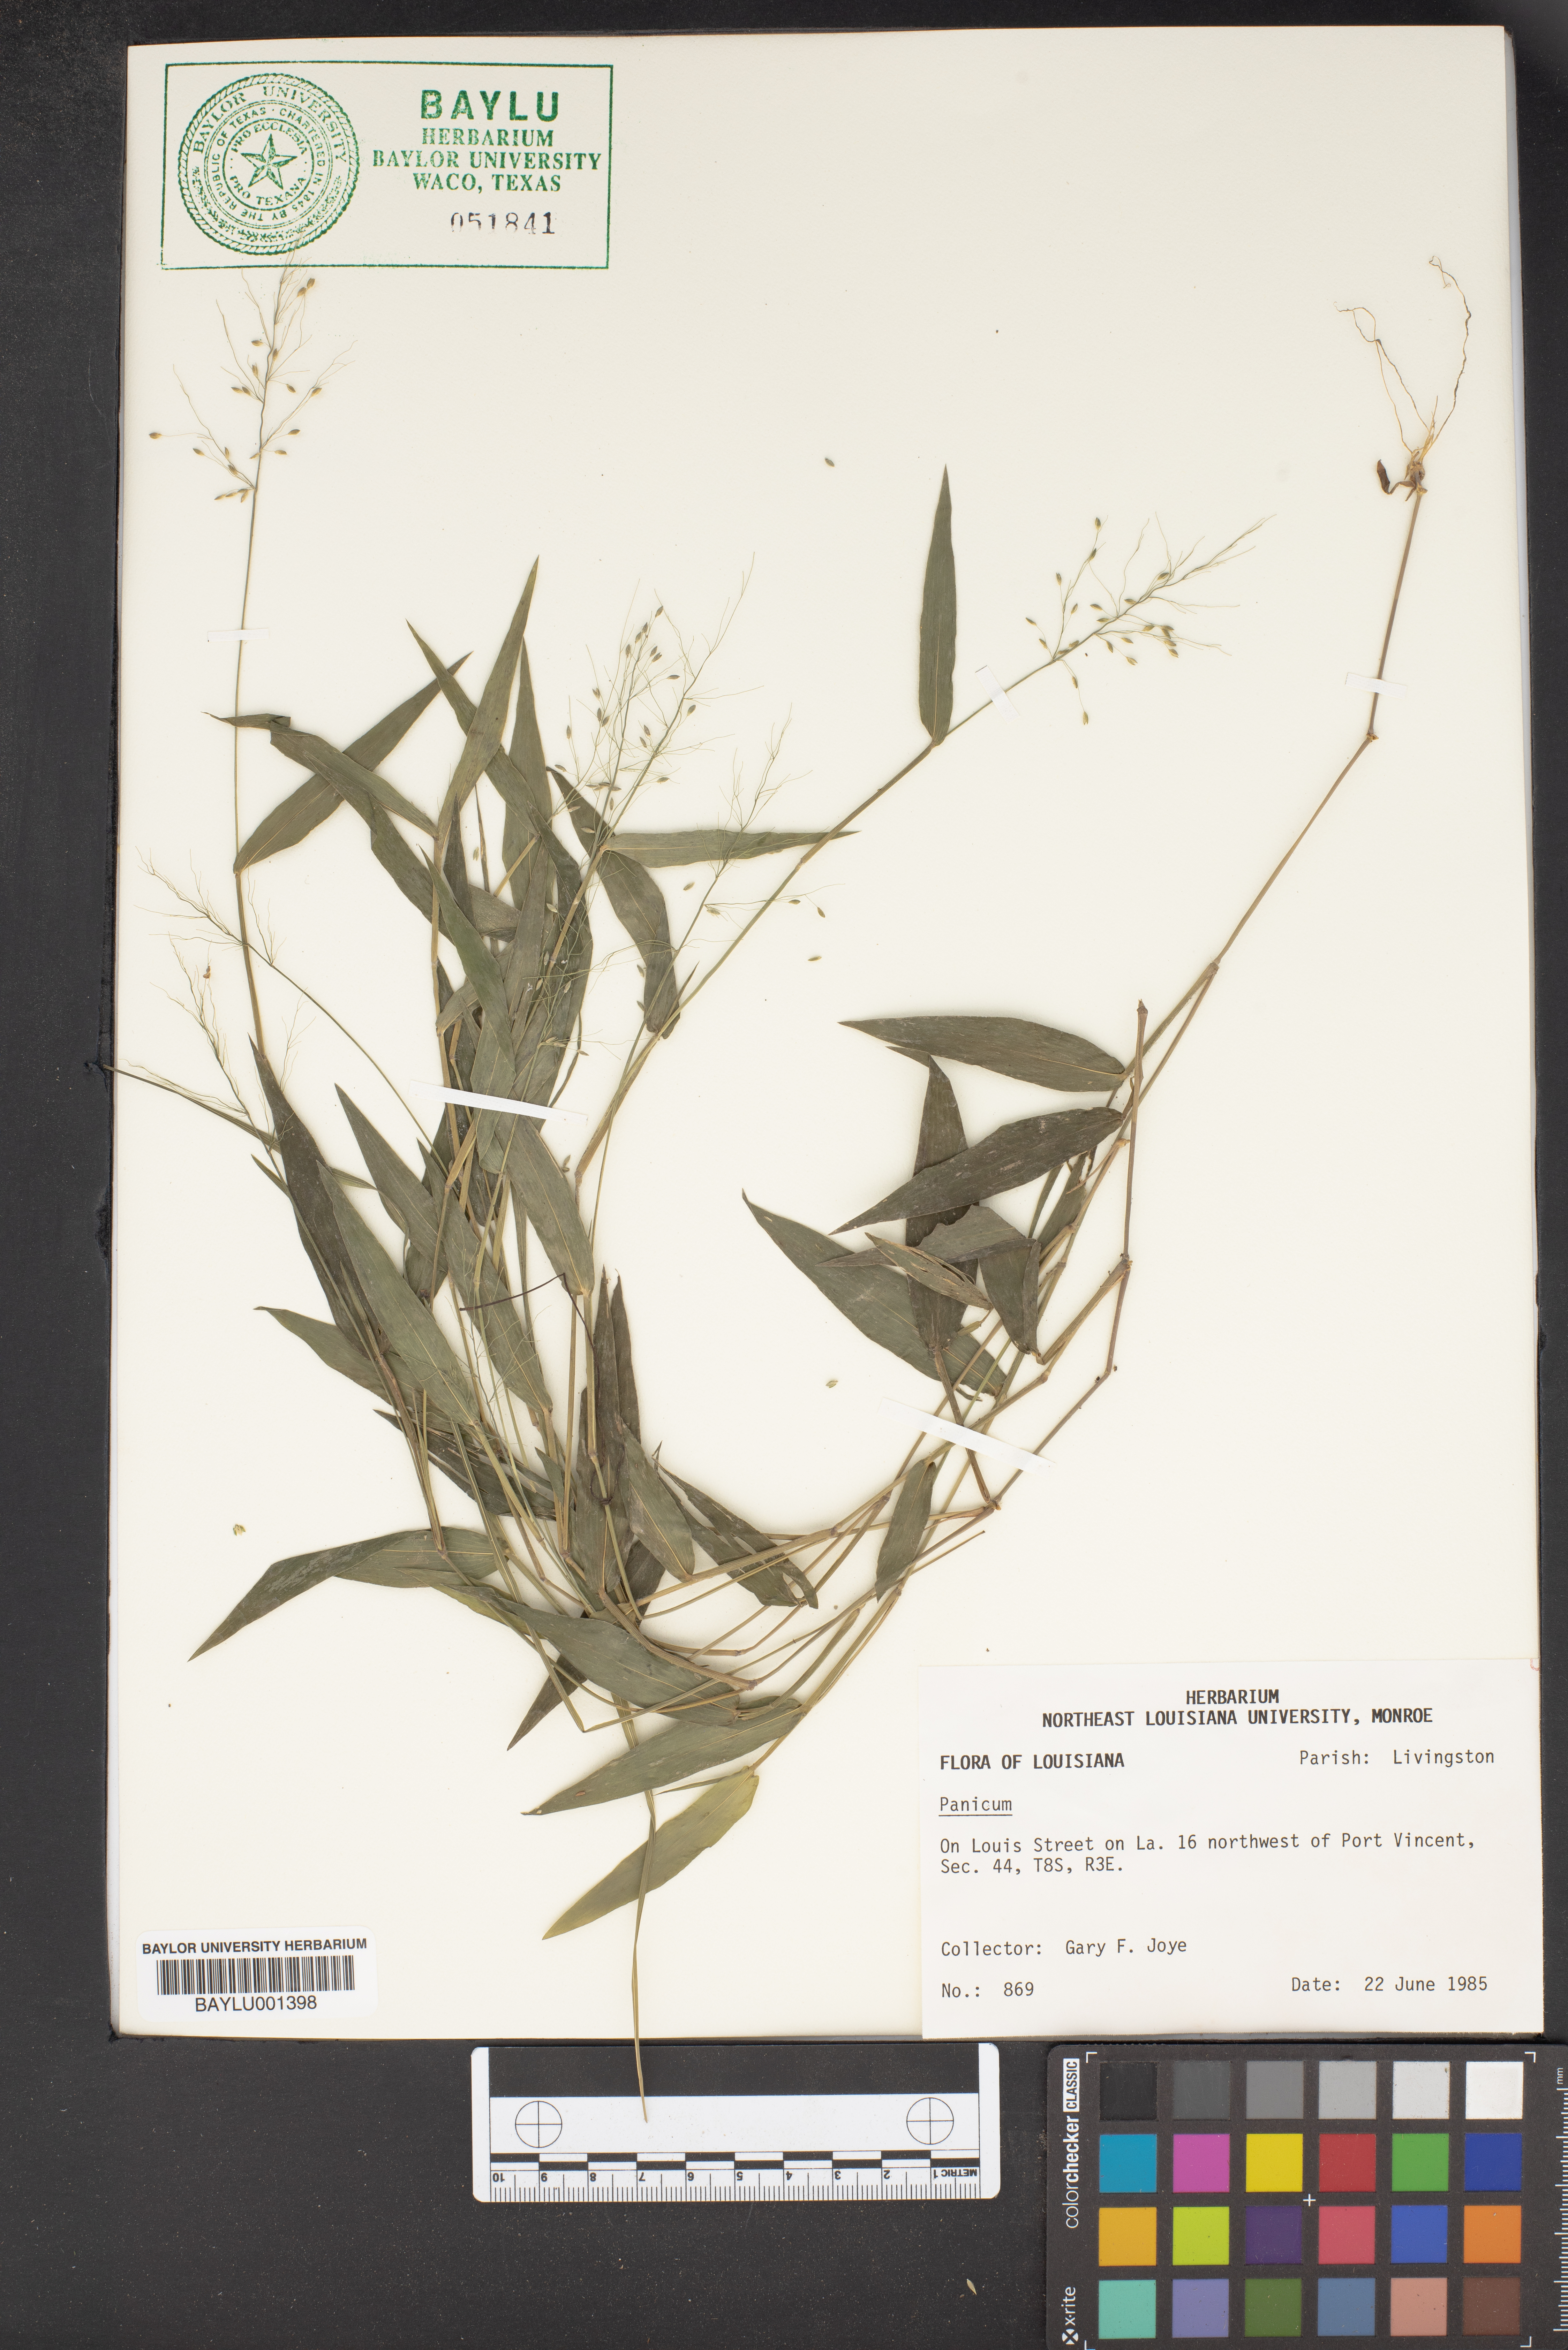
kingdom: Plantae
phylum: Tracheophyta
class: Liliopsida
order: Poales
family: Poaceae
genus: Panicum
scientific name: Panicum
